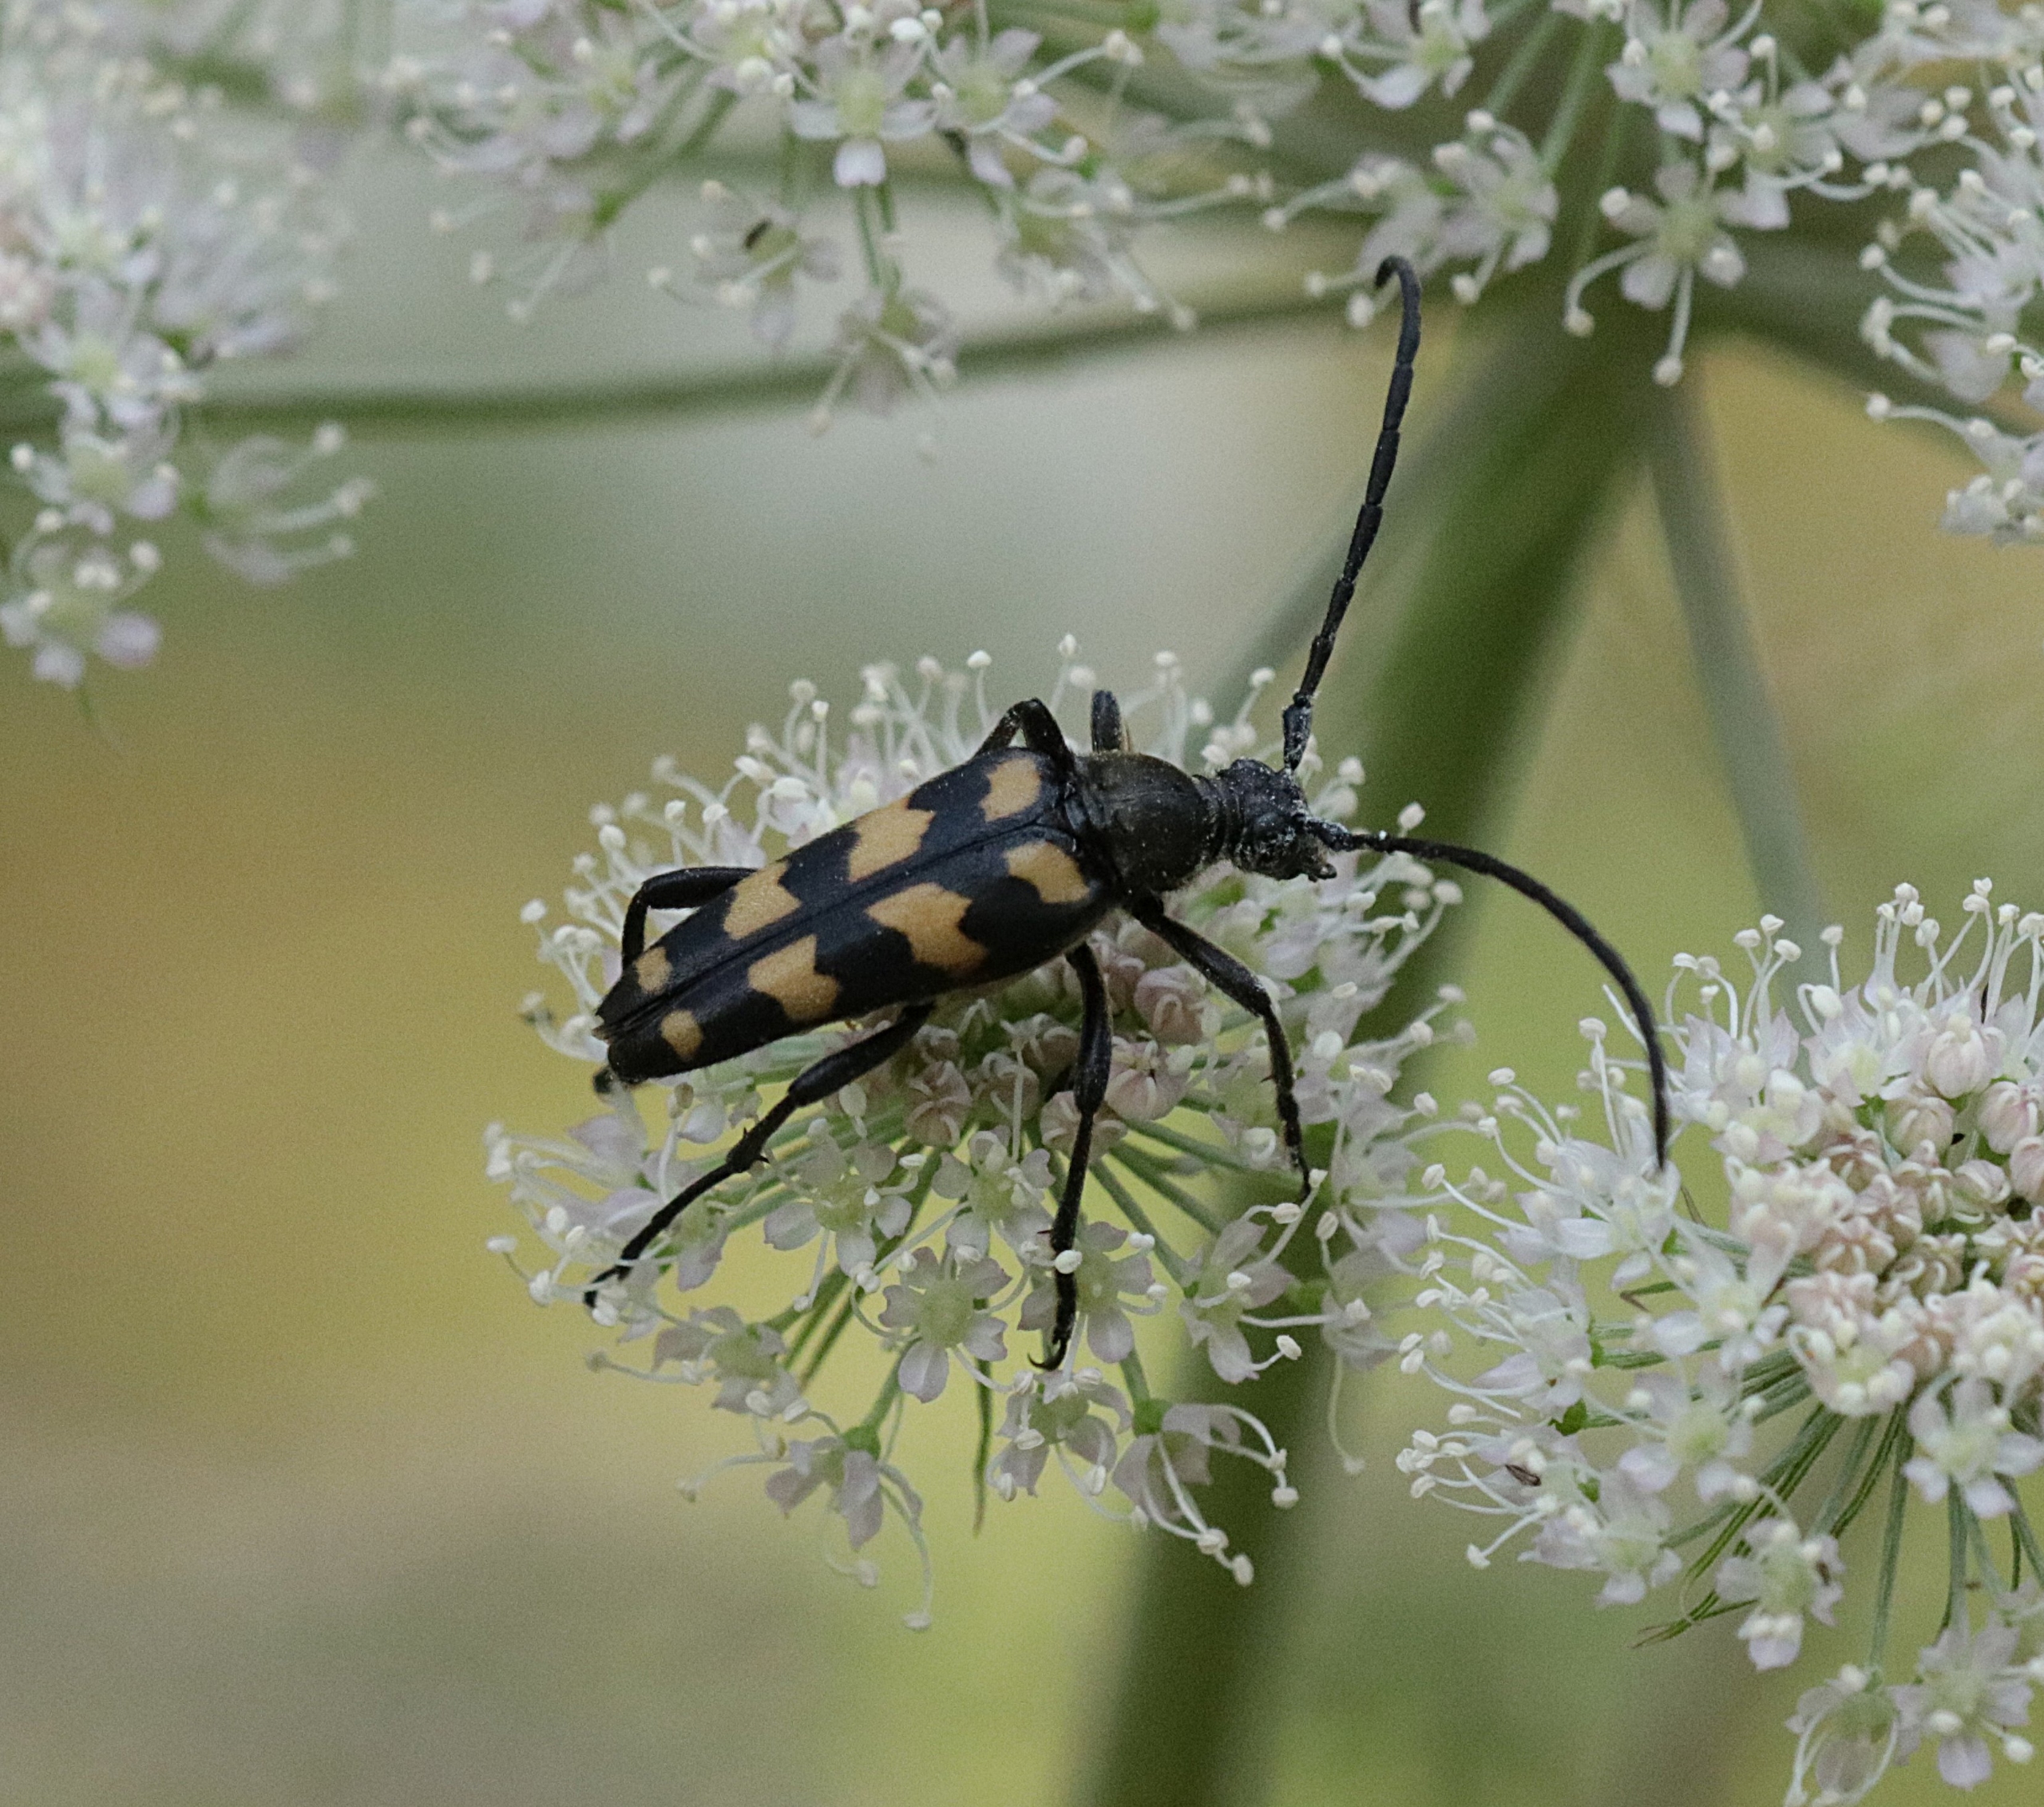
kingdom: Animalia
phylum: Arthropoda
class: Insecta
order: Coleoptera
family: Cerambycidae
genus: Leptura
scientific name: Leptura quadrifasciata
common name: Firebåndet blomsterbuk
